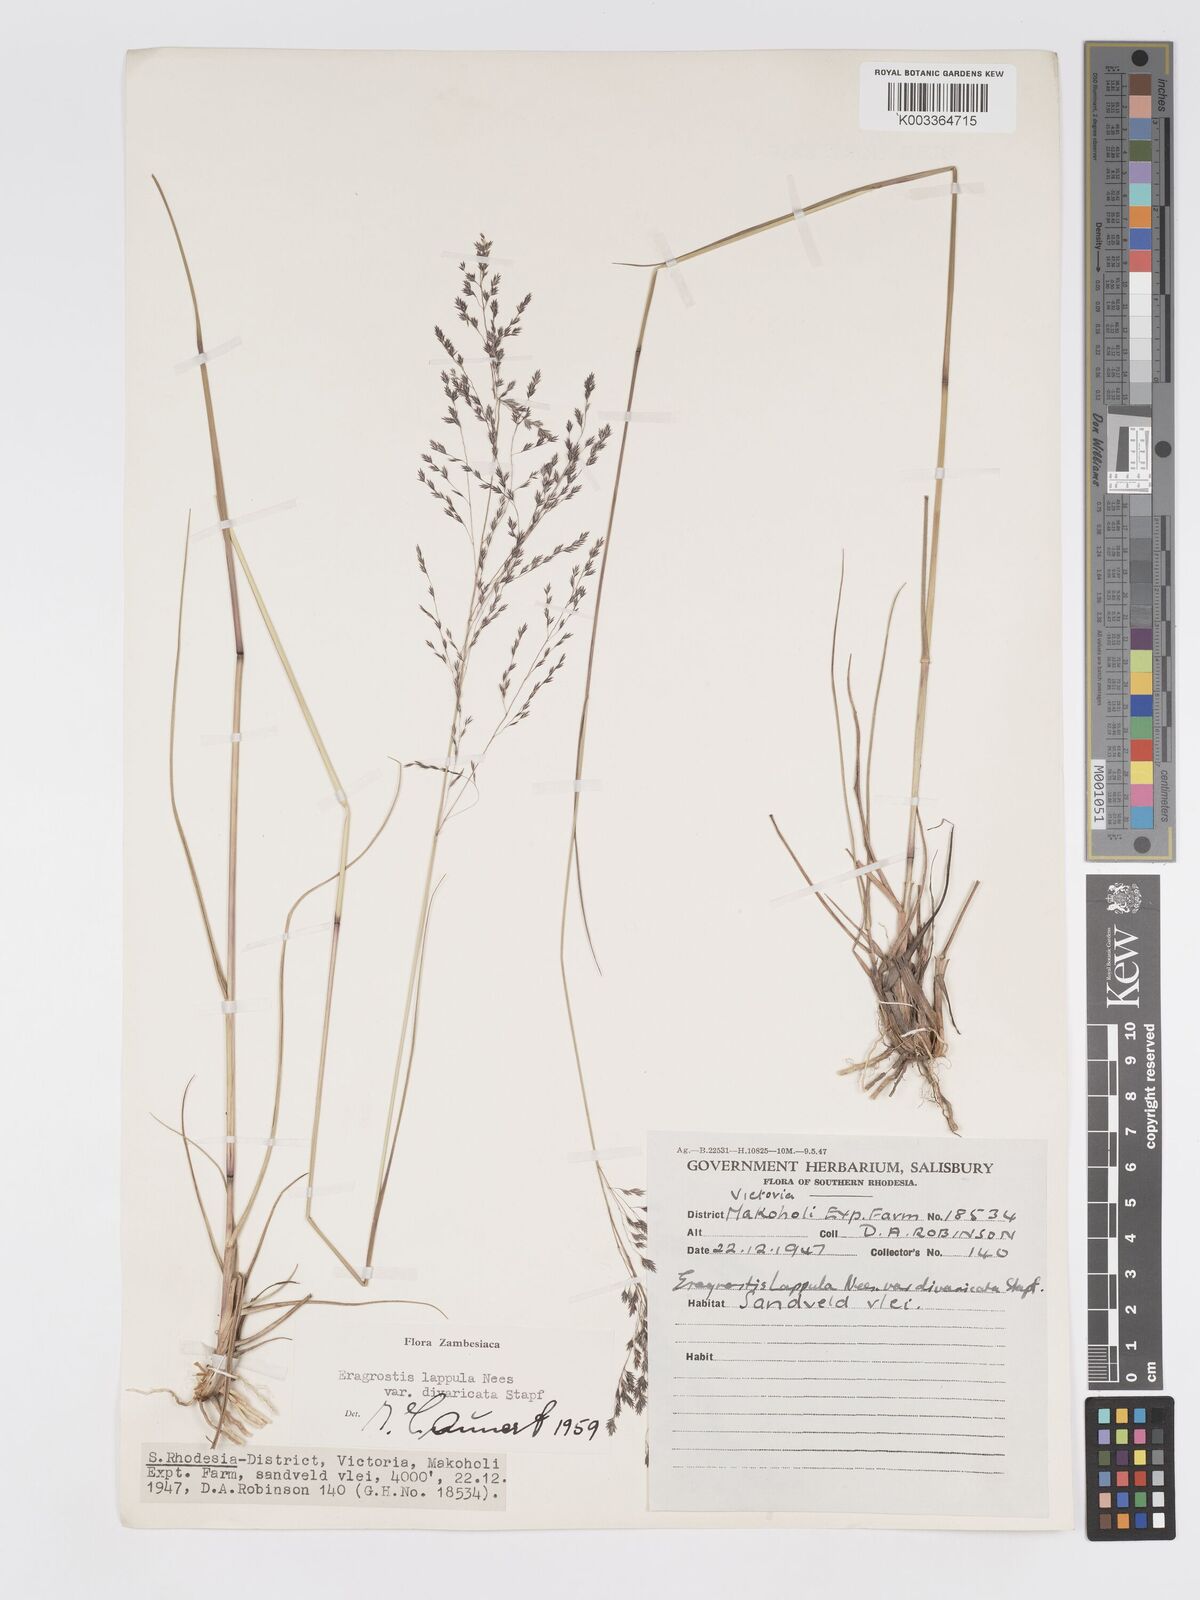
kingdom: Plantae
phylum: Tracheophyta
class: Liliopsida
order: Poales
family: Poaceae
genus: Eragrostis
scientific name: Eragrostis lappula
